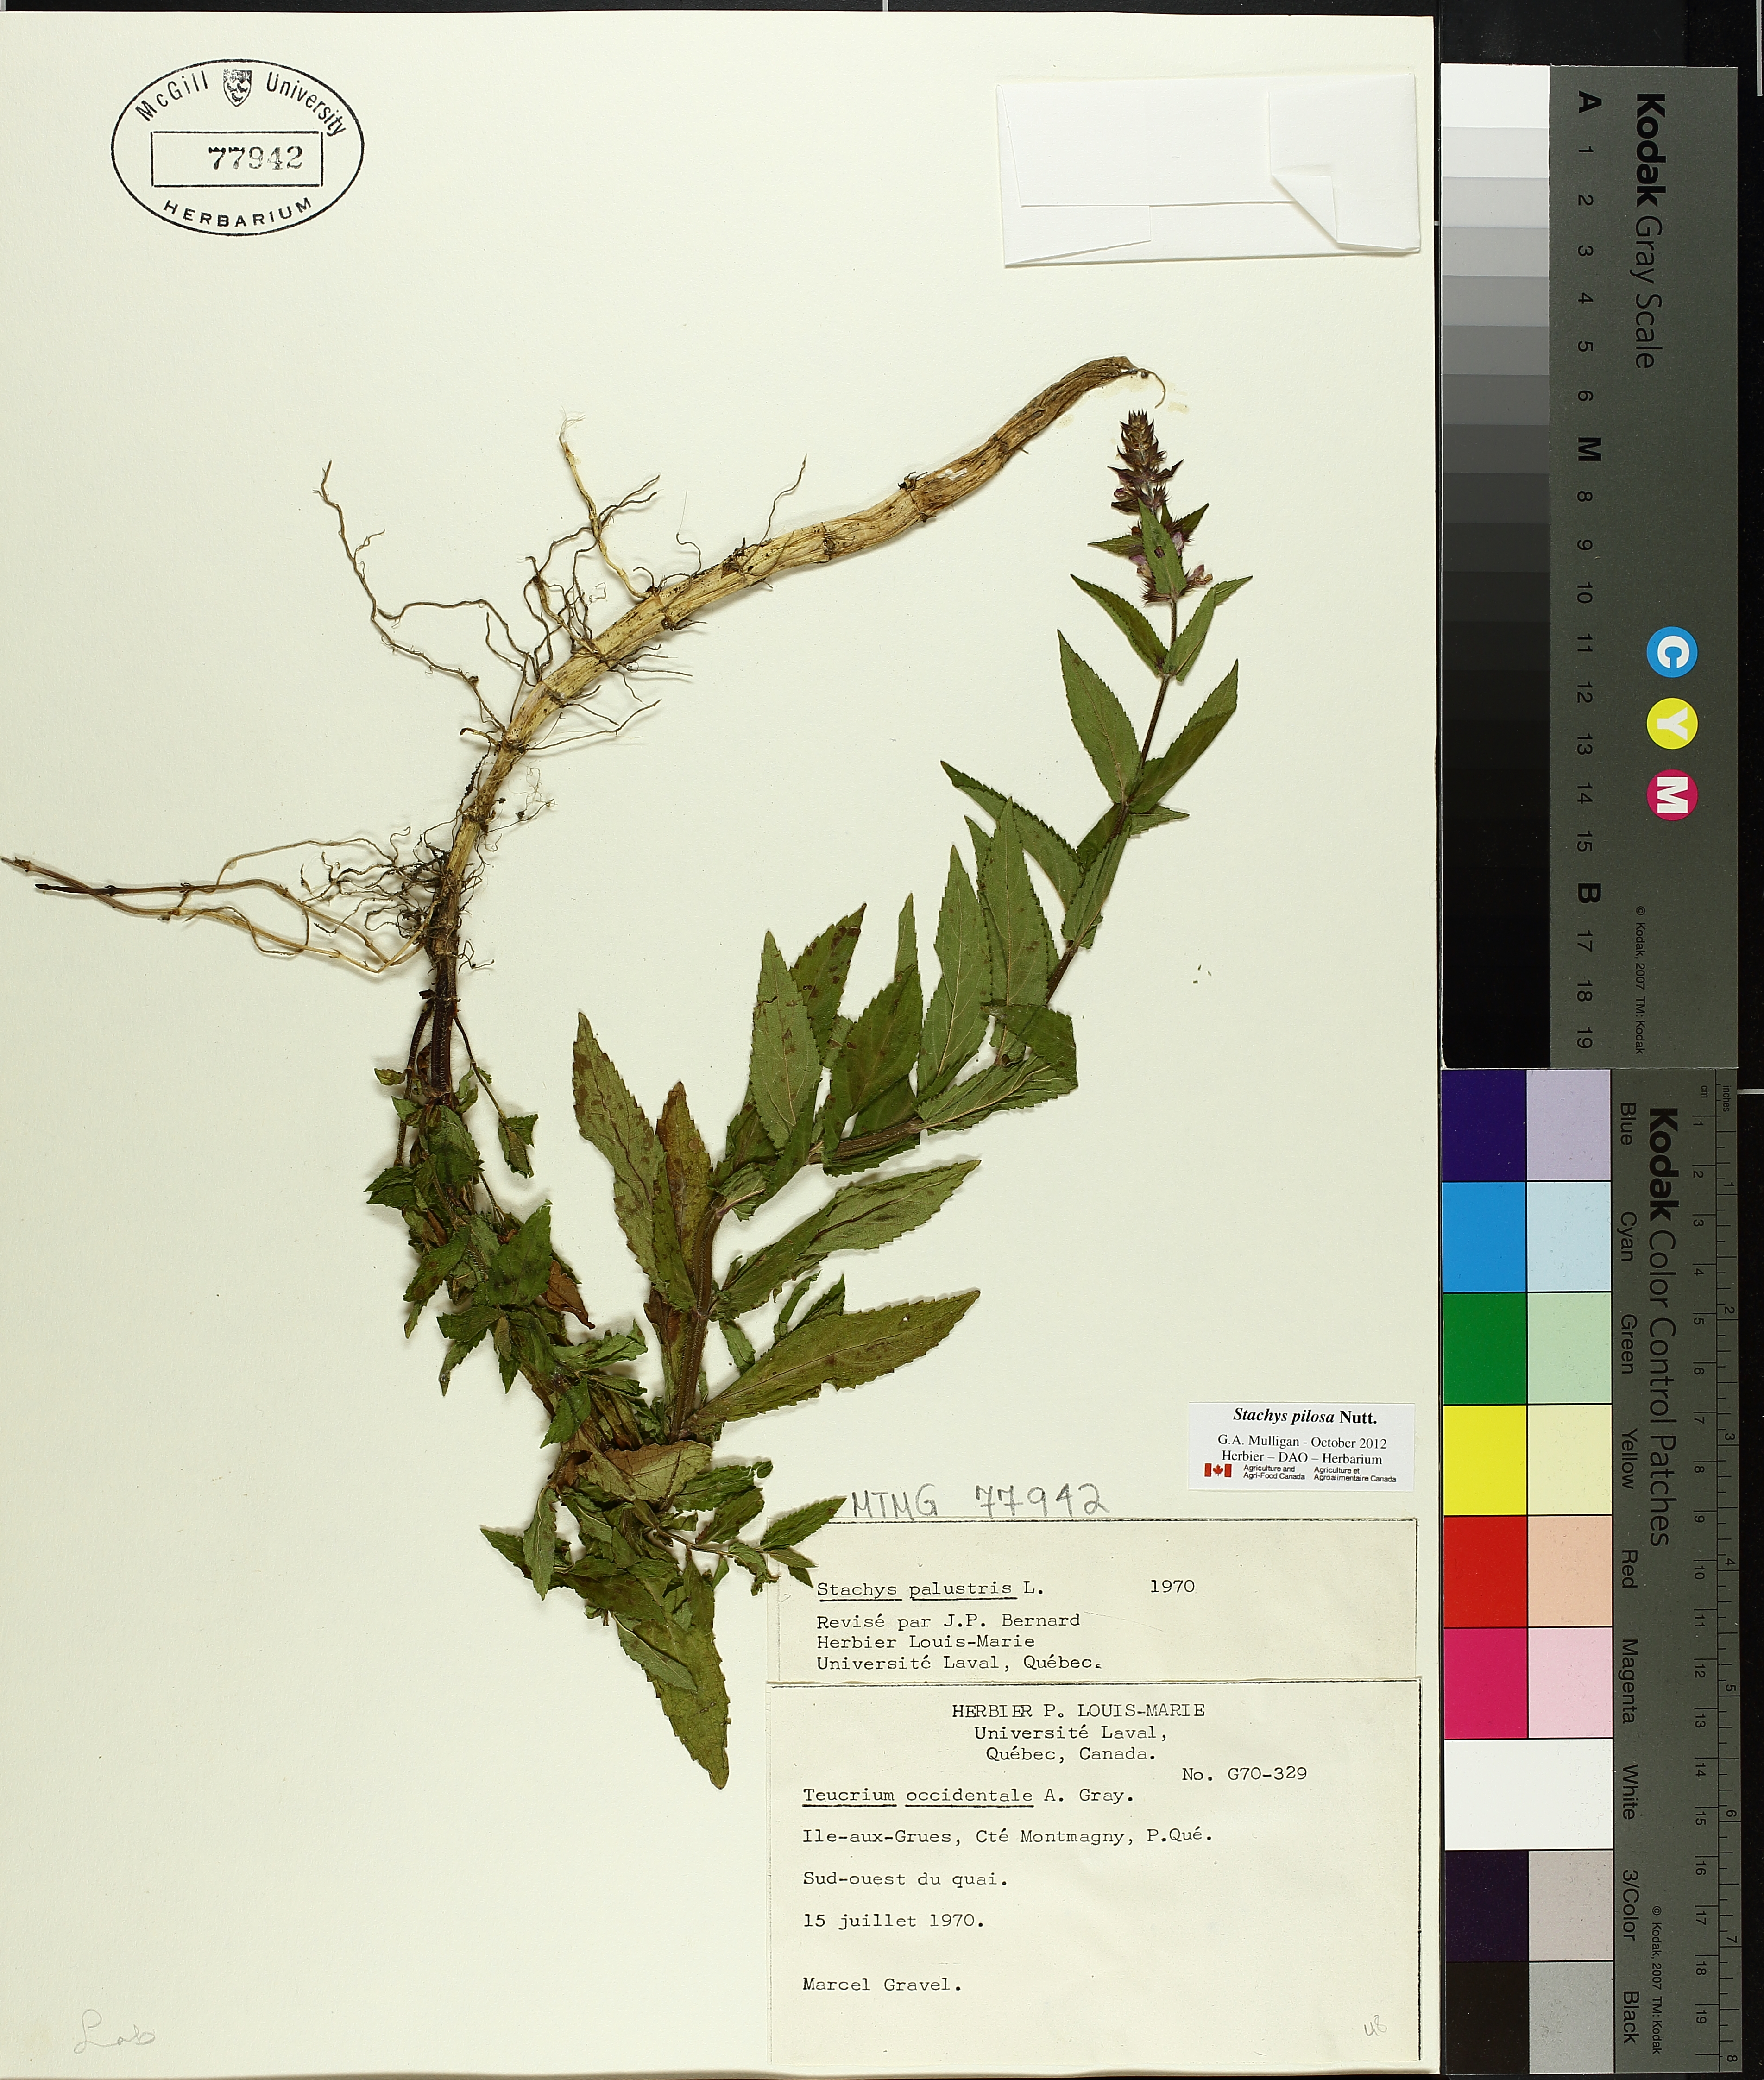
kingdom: Plantae
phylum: Tracheophyta
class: Magnoliopsida
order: Lamiales
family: Lamiaceae
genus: Stachys
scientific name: Stachys palustris
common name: Marsh woundwort
